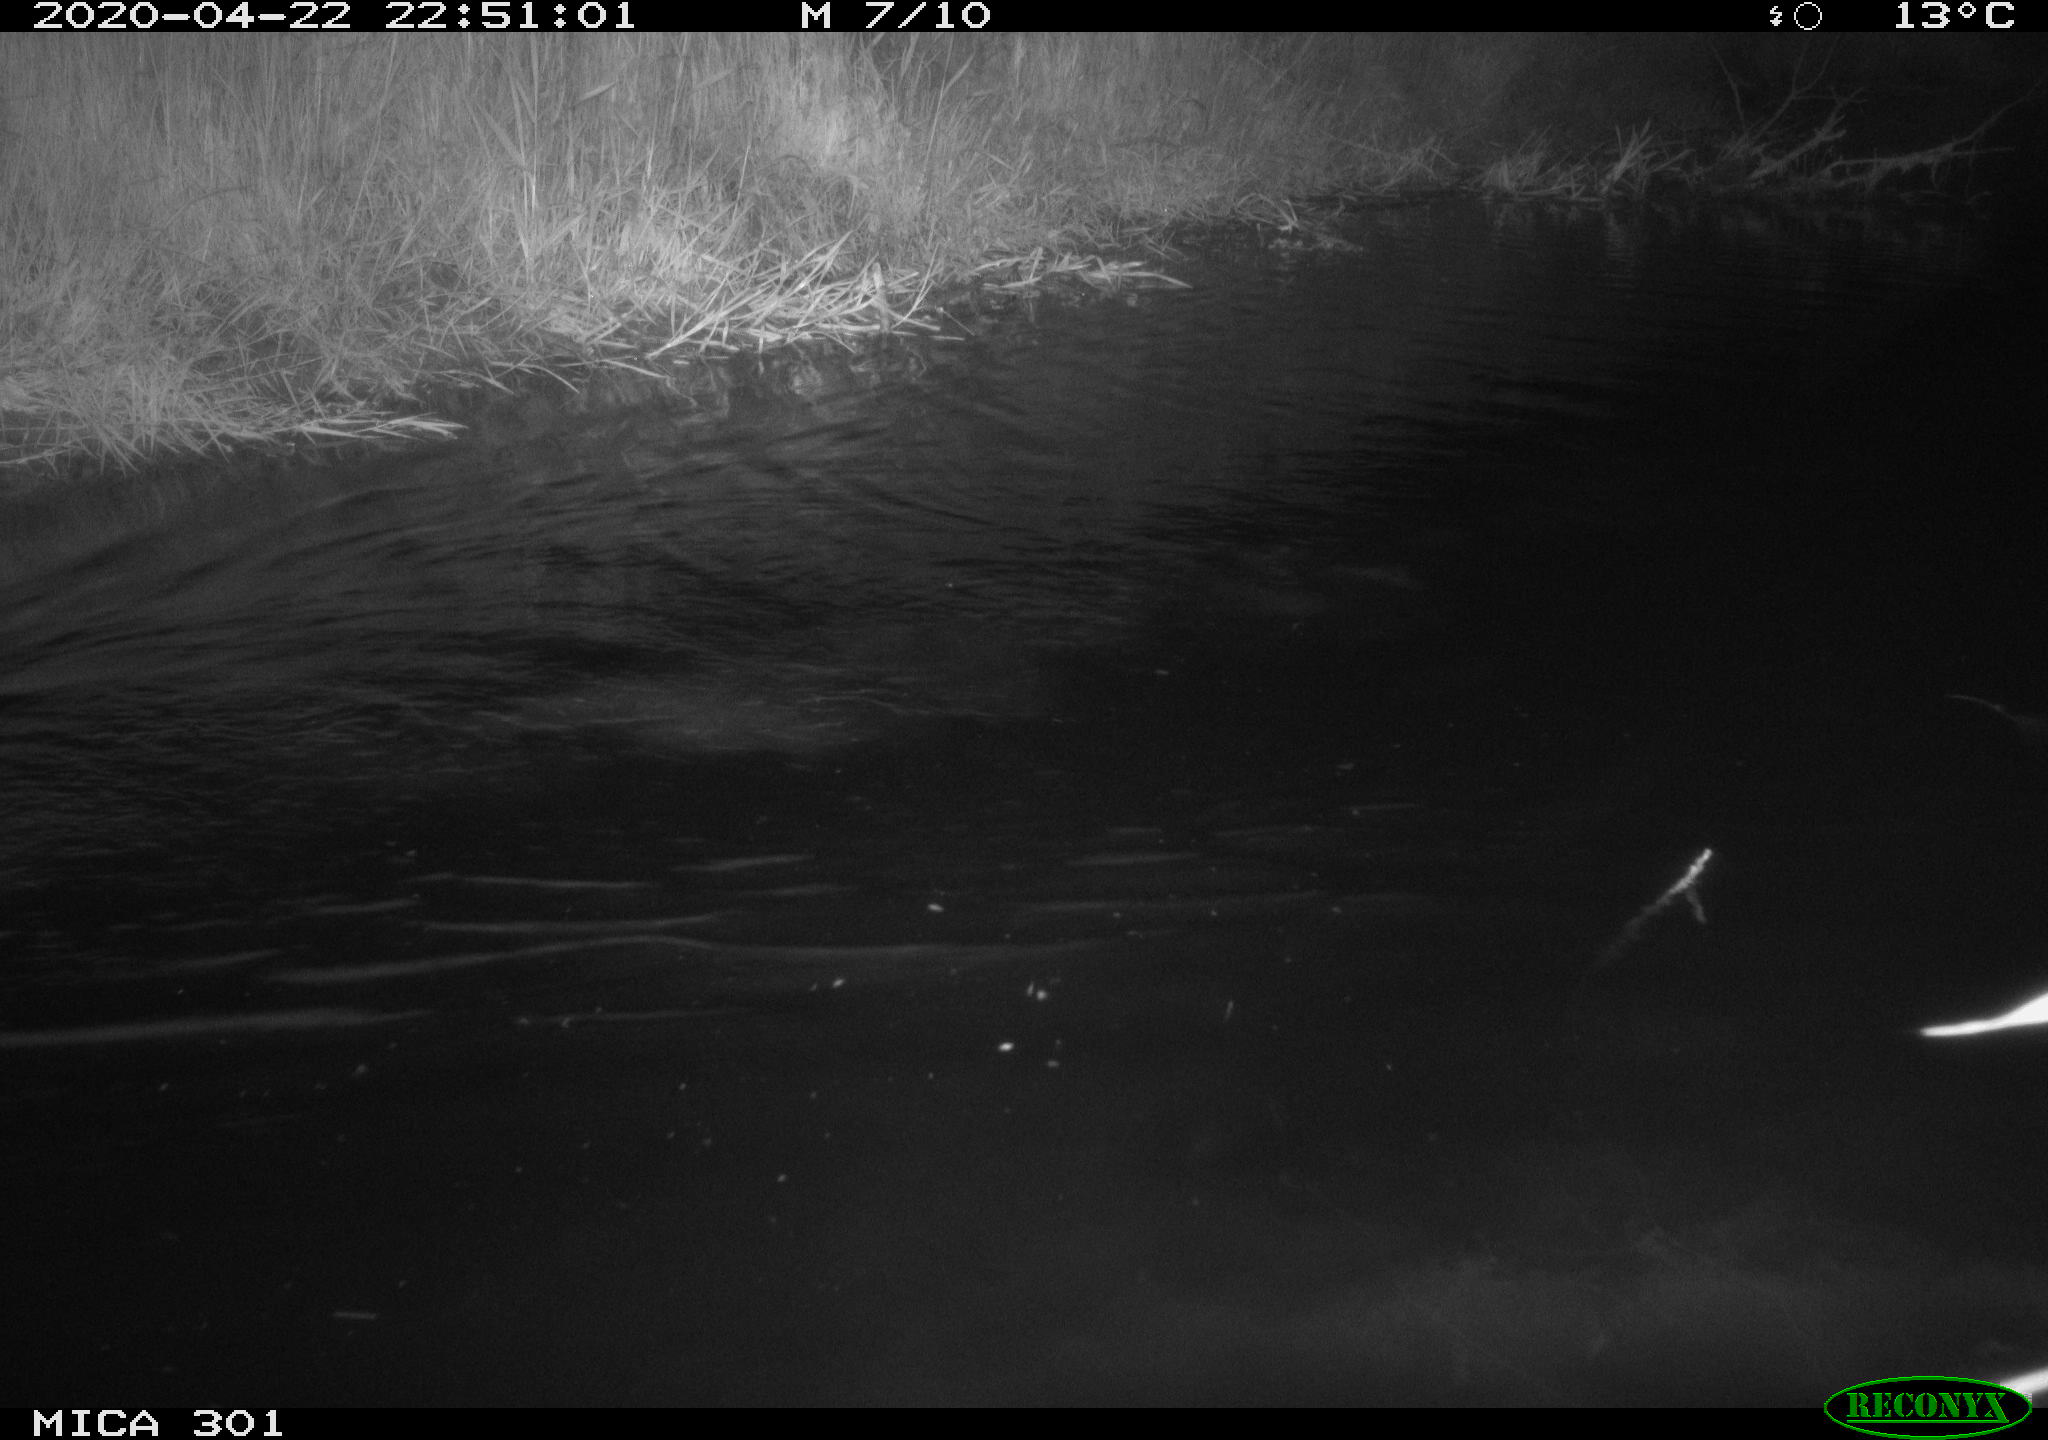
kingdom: Animalia
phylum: Chordata
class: Mammalia
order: Rodentia
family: Castoridae
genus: Castor
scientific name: Castor fiber
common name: Eurasian beaver
